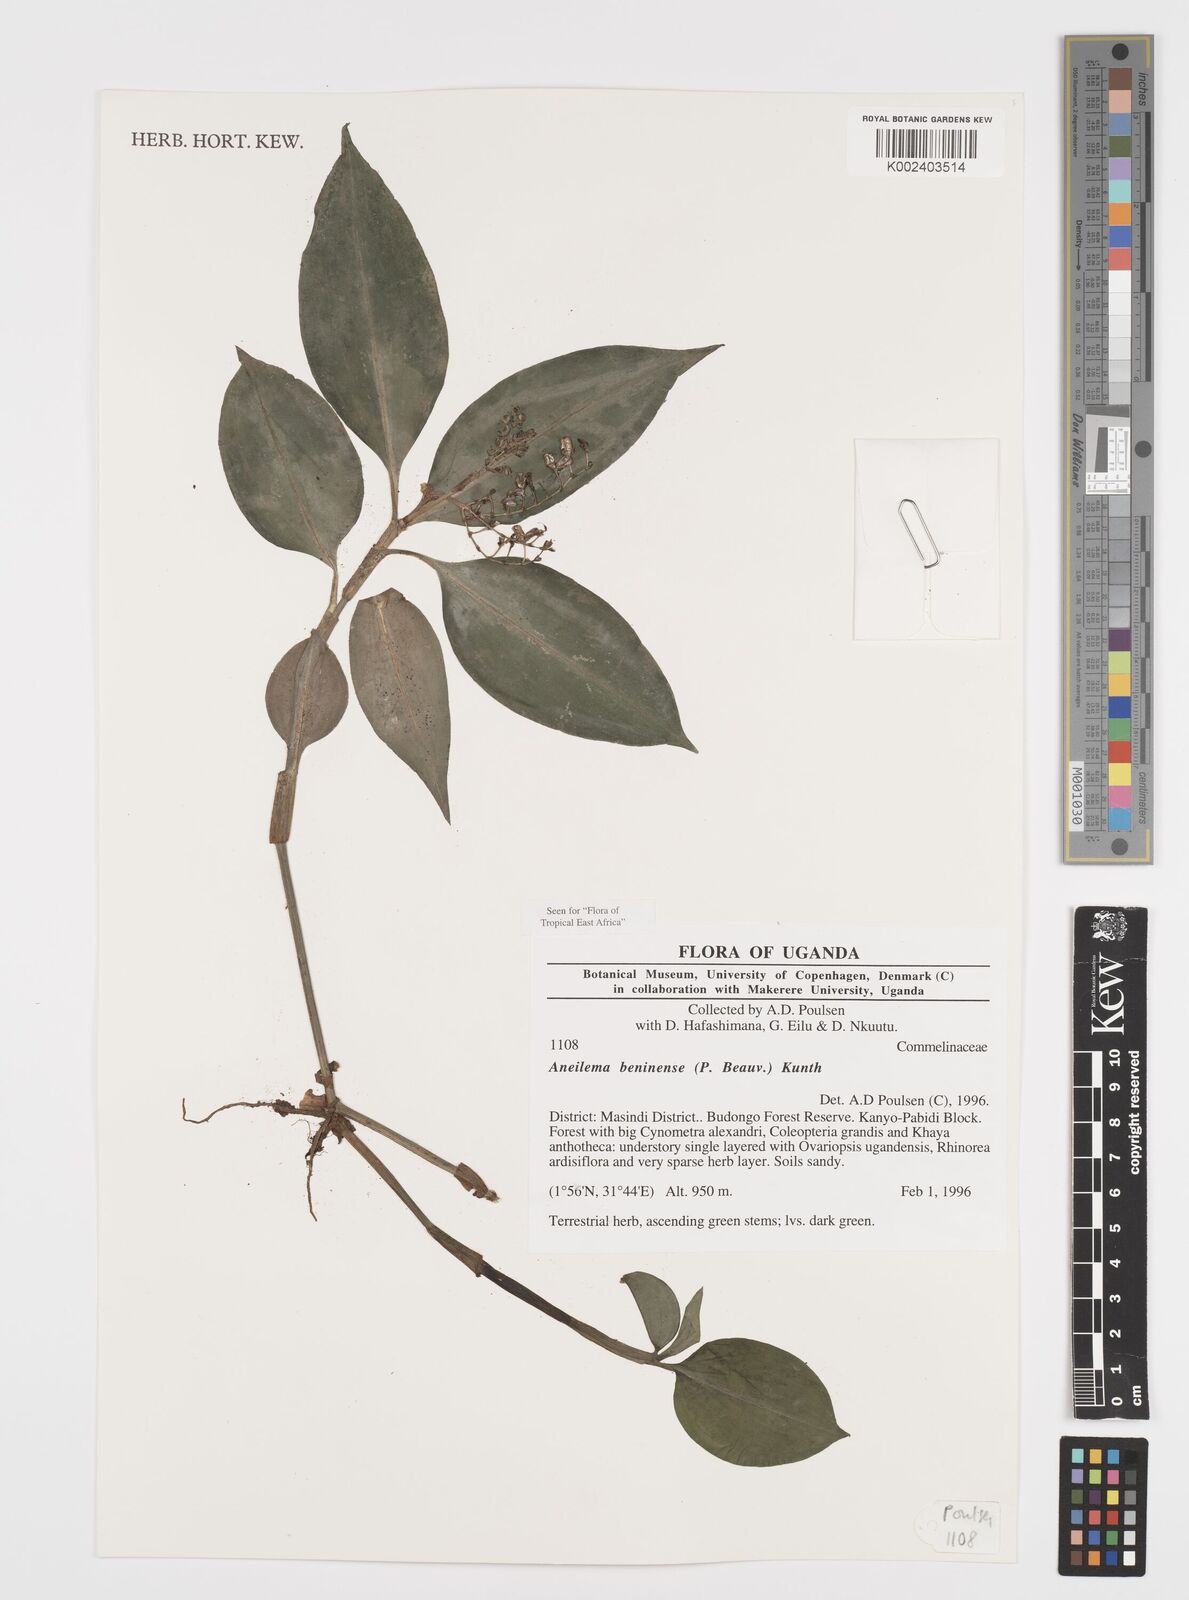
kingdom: Plantae
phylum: Tracheophyta
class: Liliopsida
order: Commelinales
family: Commelinaceae
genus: Aneilema
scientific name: Aneilema beniniense
